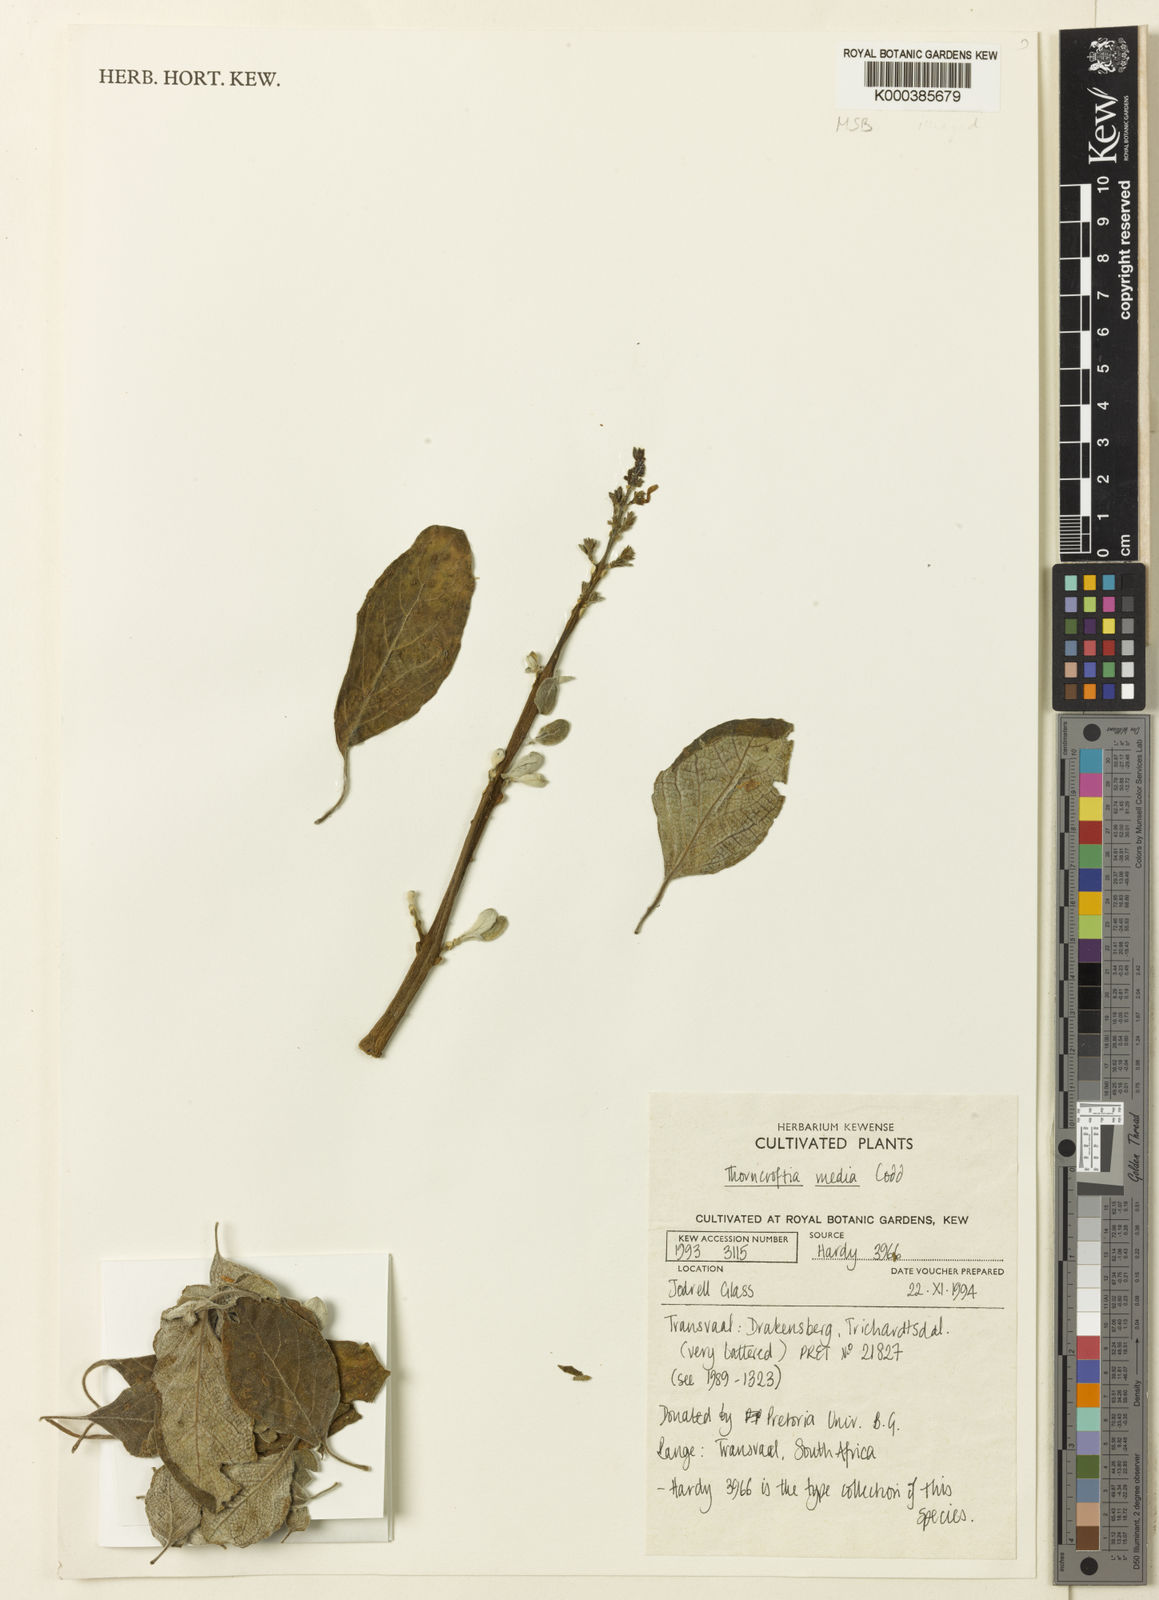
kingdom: Plantae
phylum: Tracheophyta
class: Magnoliopsida
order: Lamiales
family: Lamiaceae
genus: Thorncroftia
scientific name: Thorncroftia media
